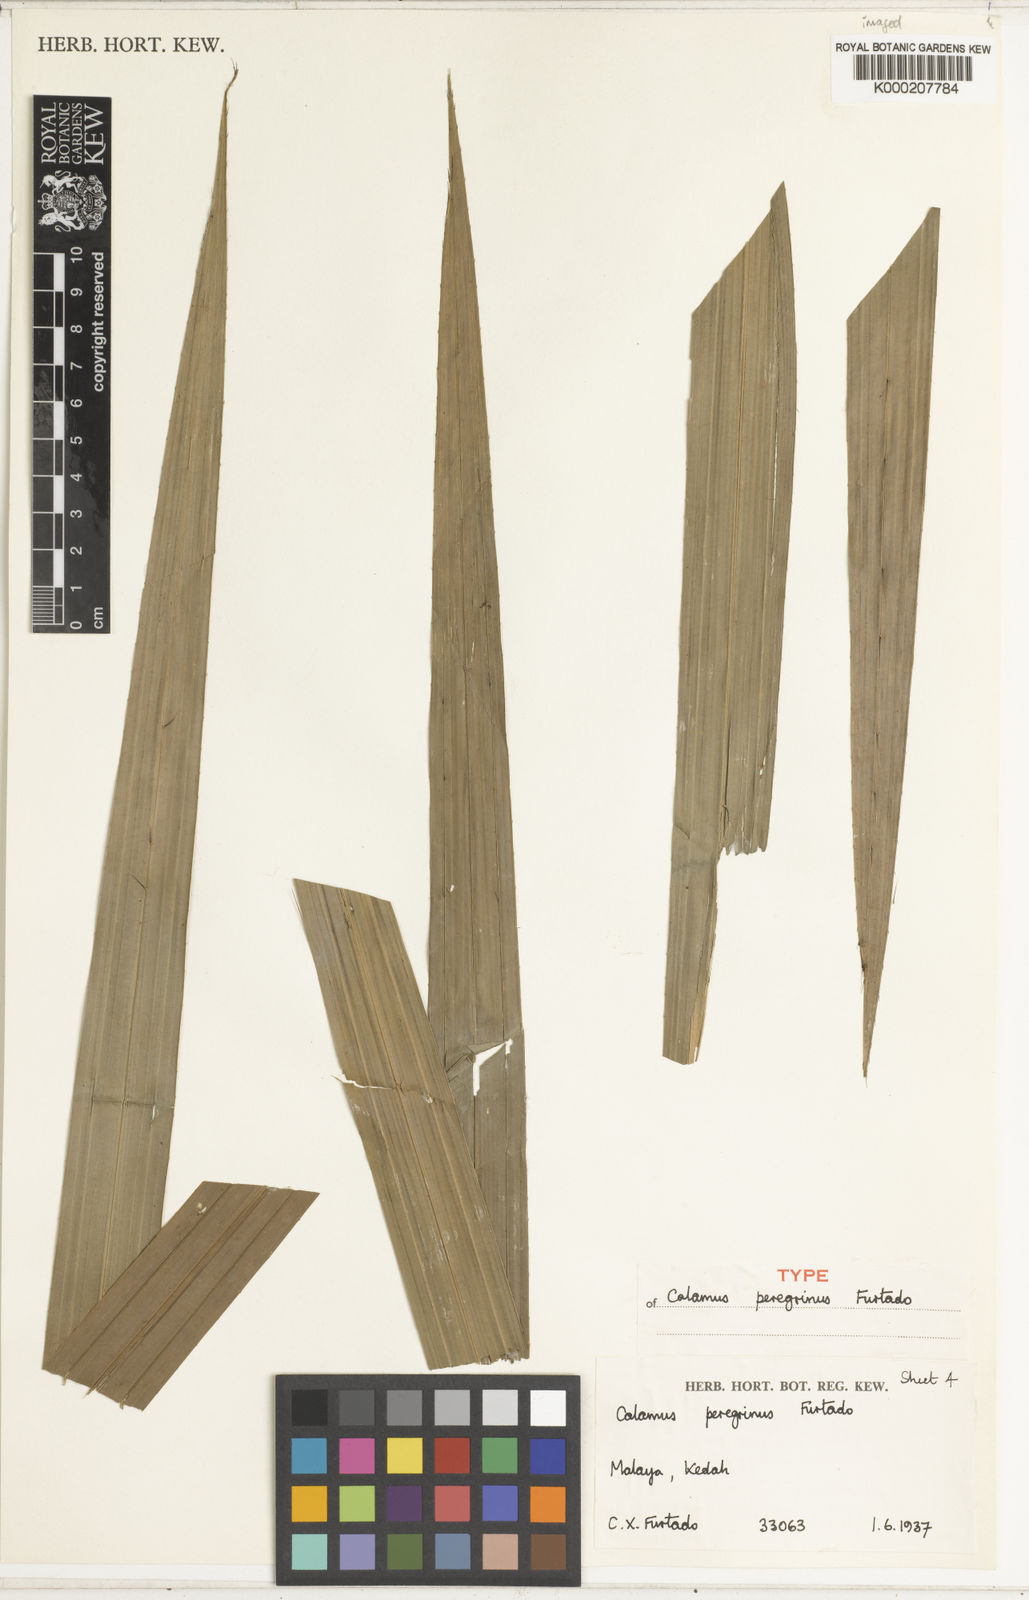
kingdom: Plantae
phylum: Tracheophyta
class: Liliopsida
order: Arecales
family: Arecaceae
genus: Calamus
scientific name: Calamus peregrinus
